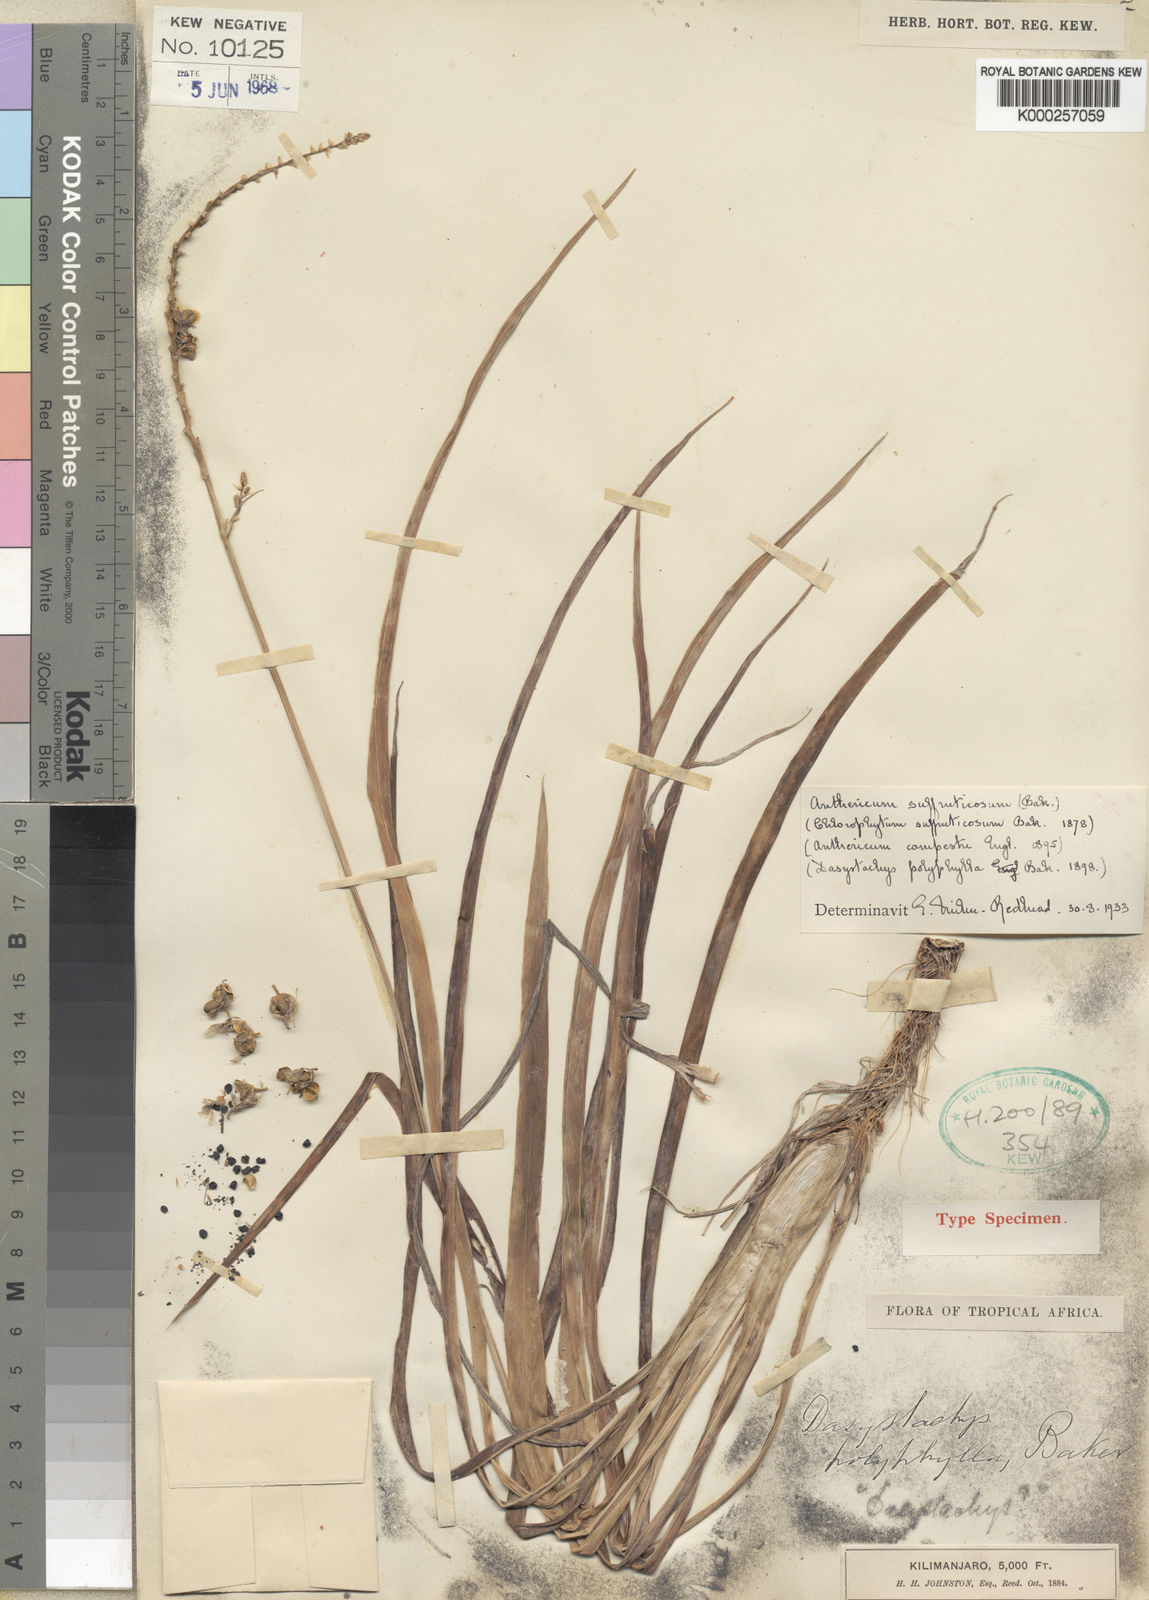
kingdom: Plantae
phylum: Tracheophyta
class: Liliopsida
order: Asparagales
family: Asparagaceae
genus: Chlorophytum
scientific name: Chlorophytum suffruticosum
